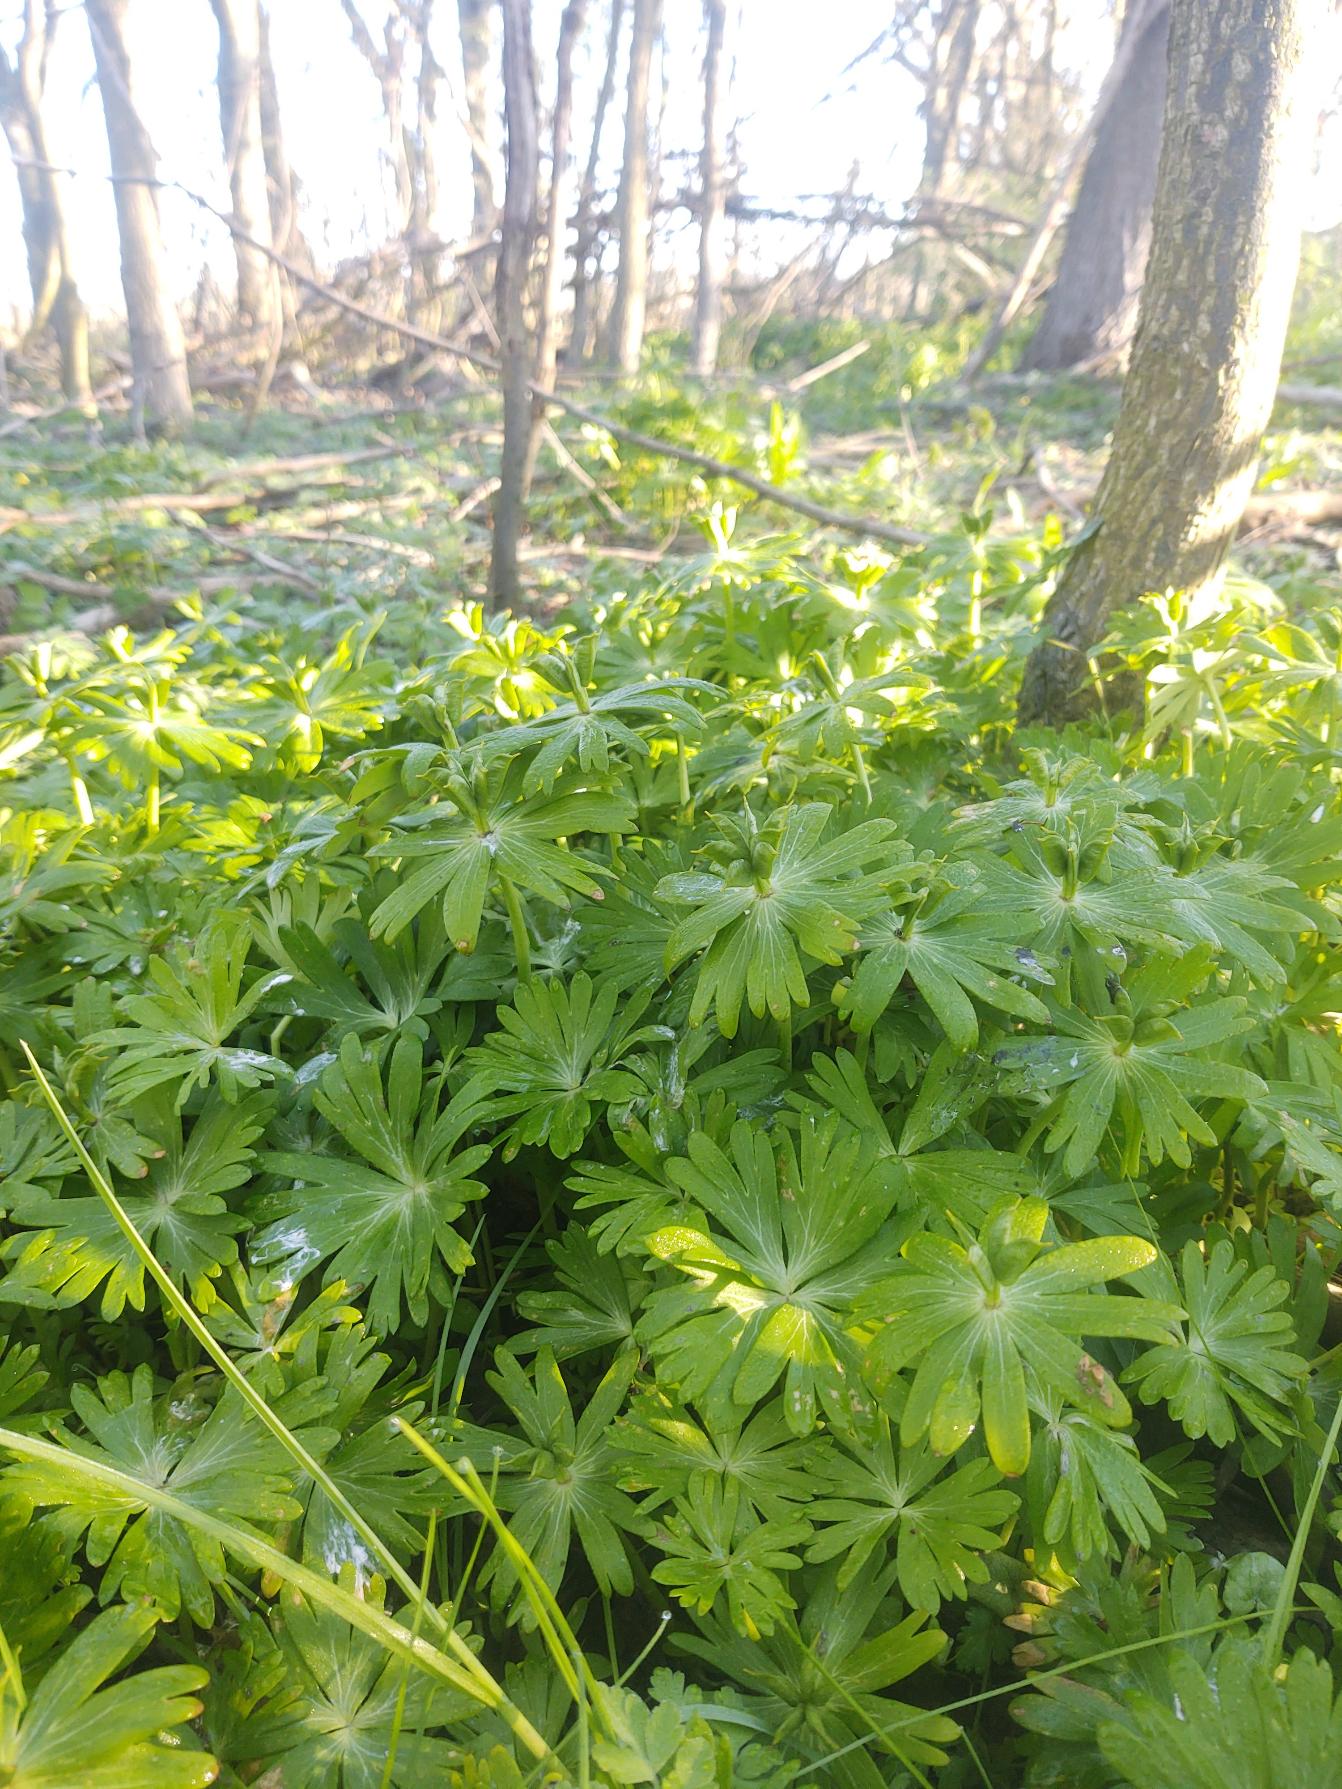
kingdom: Plantae
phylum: Tracheophyta
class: Magnoliopsida
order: Ranunculales
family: Ranunculaceae
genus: Eranthis
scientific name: Eranthis hyemalis
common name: Erantis
